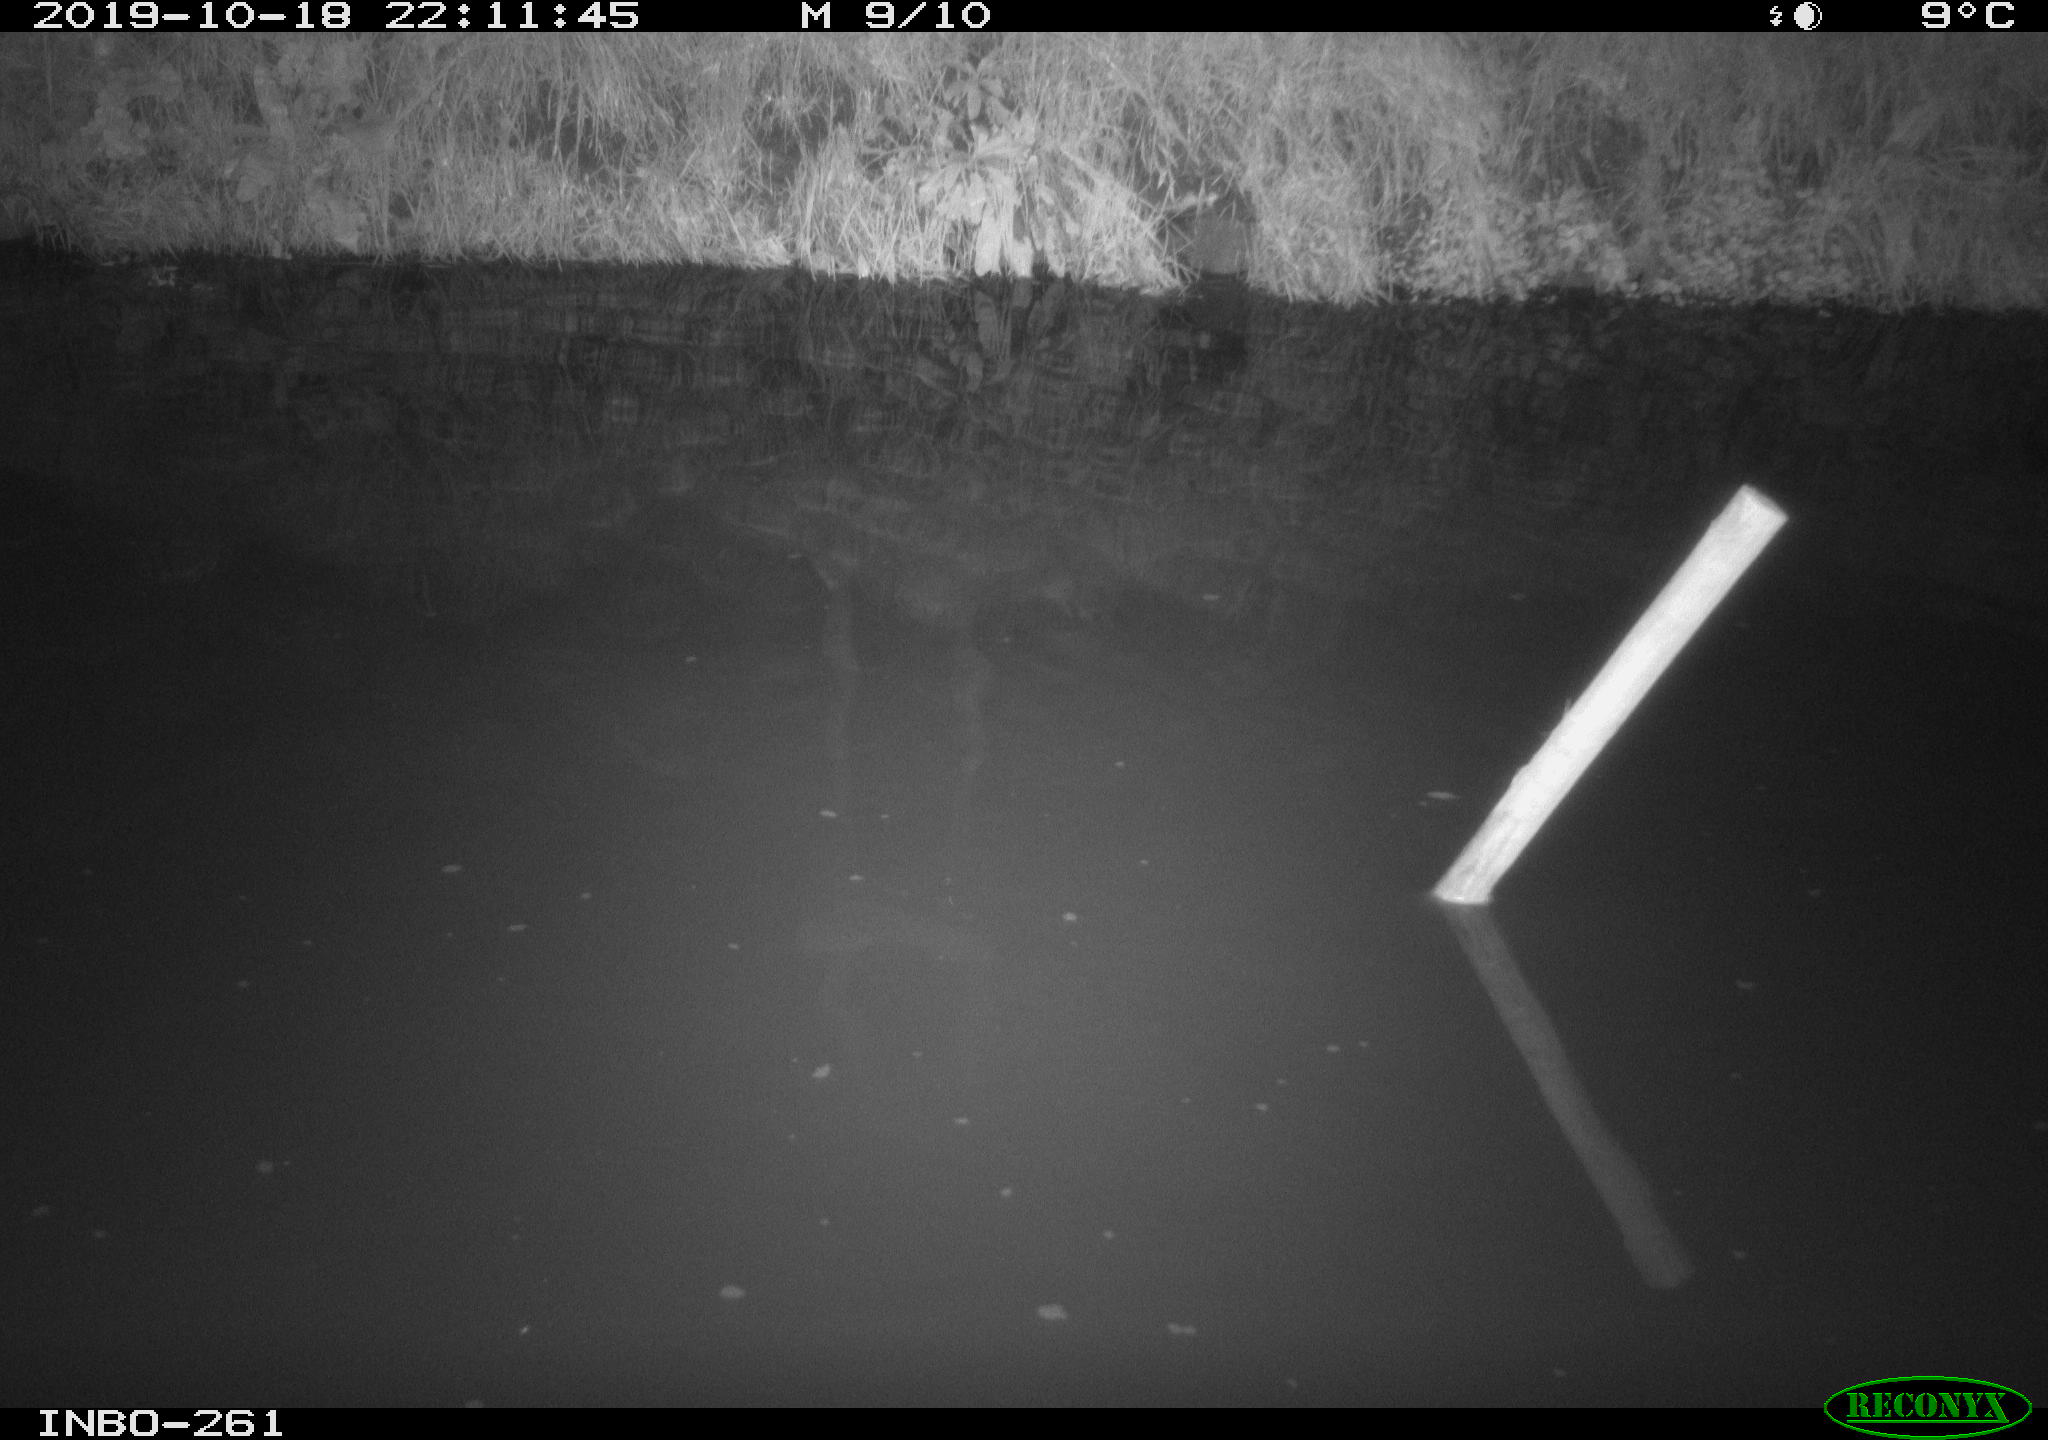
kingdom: Animalia
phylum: Chordata
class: Aves
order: Anseriformes
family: Anatidae
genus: Anas
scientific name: Anas platyrhynchos
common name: Mallard
